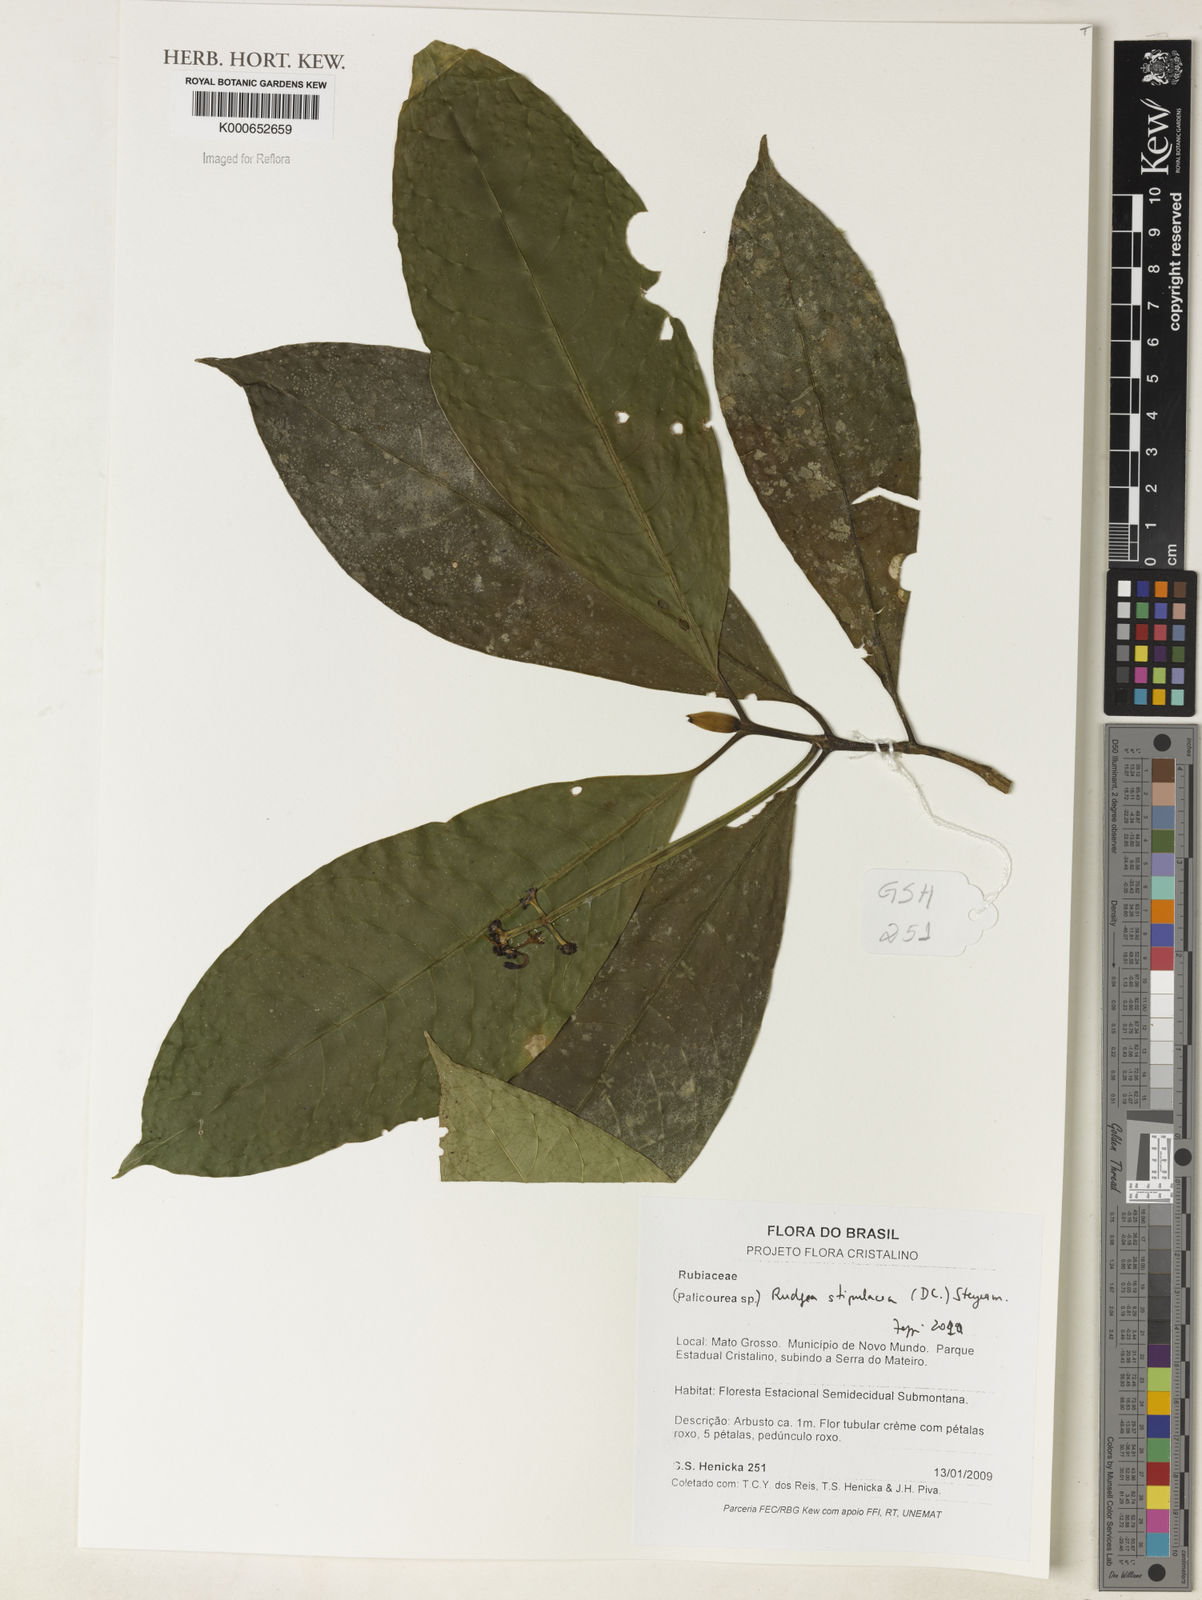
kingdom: Plantae
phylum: Tracheophyta
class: Magnoliopsida
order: Gentianales
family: Rubiaceae
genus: Rudgea
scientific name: Rudgea stipulacea
